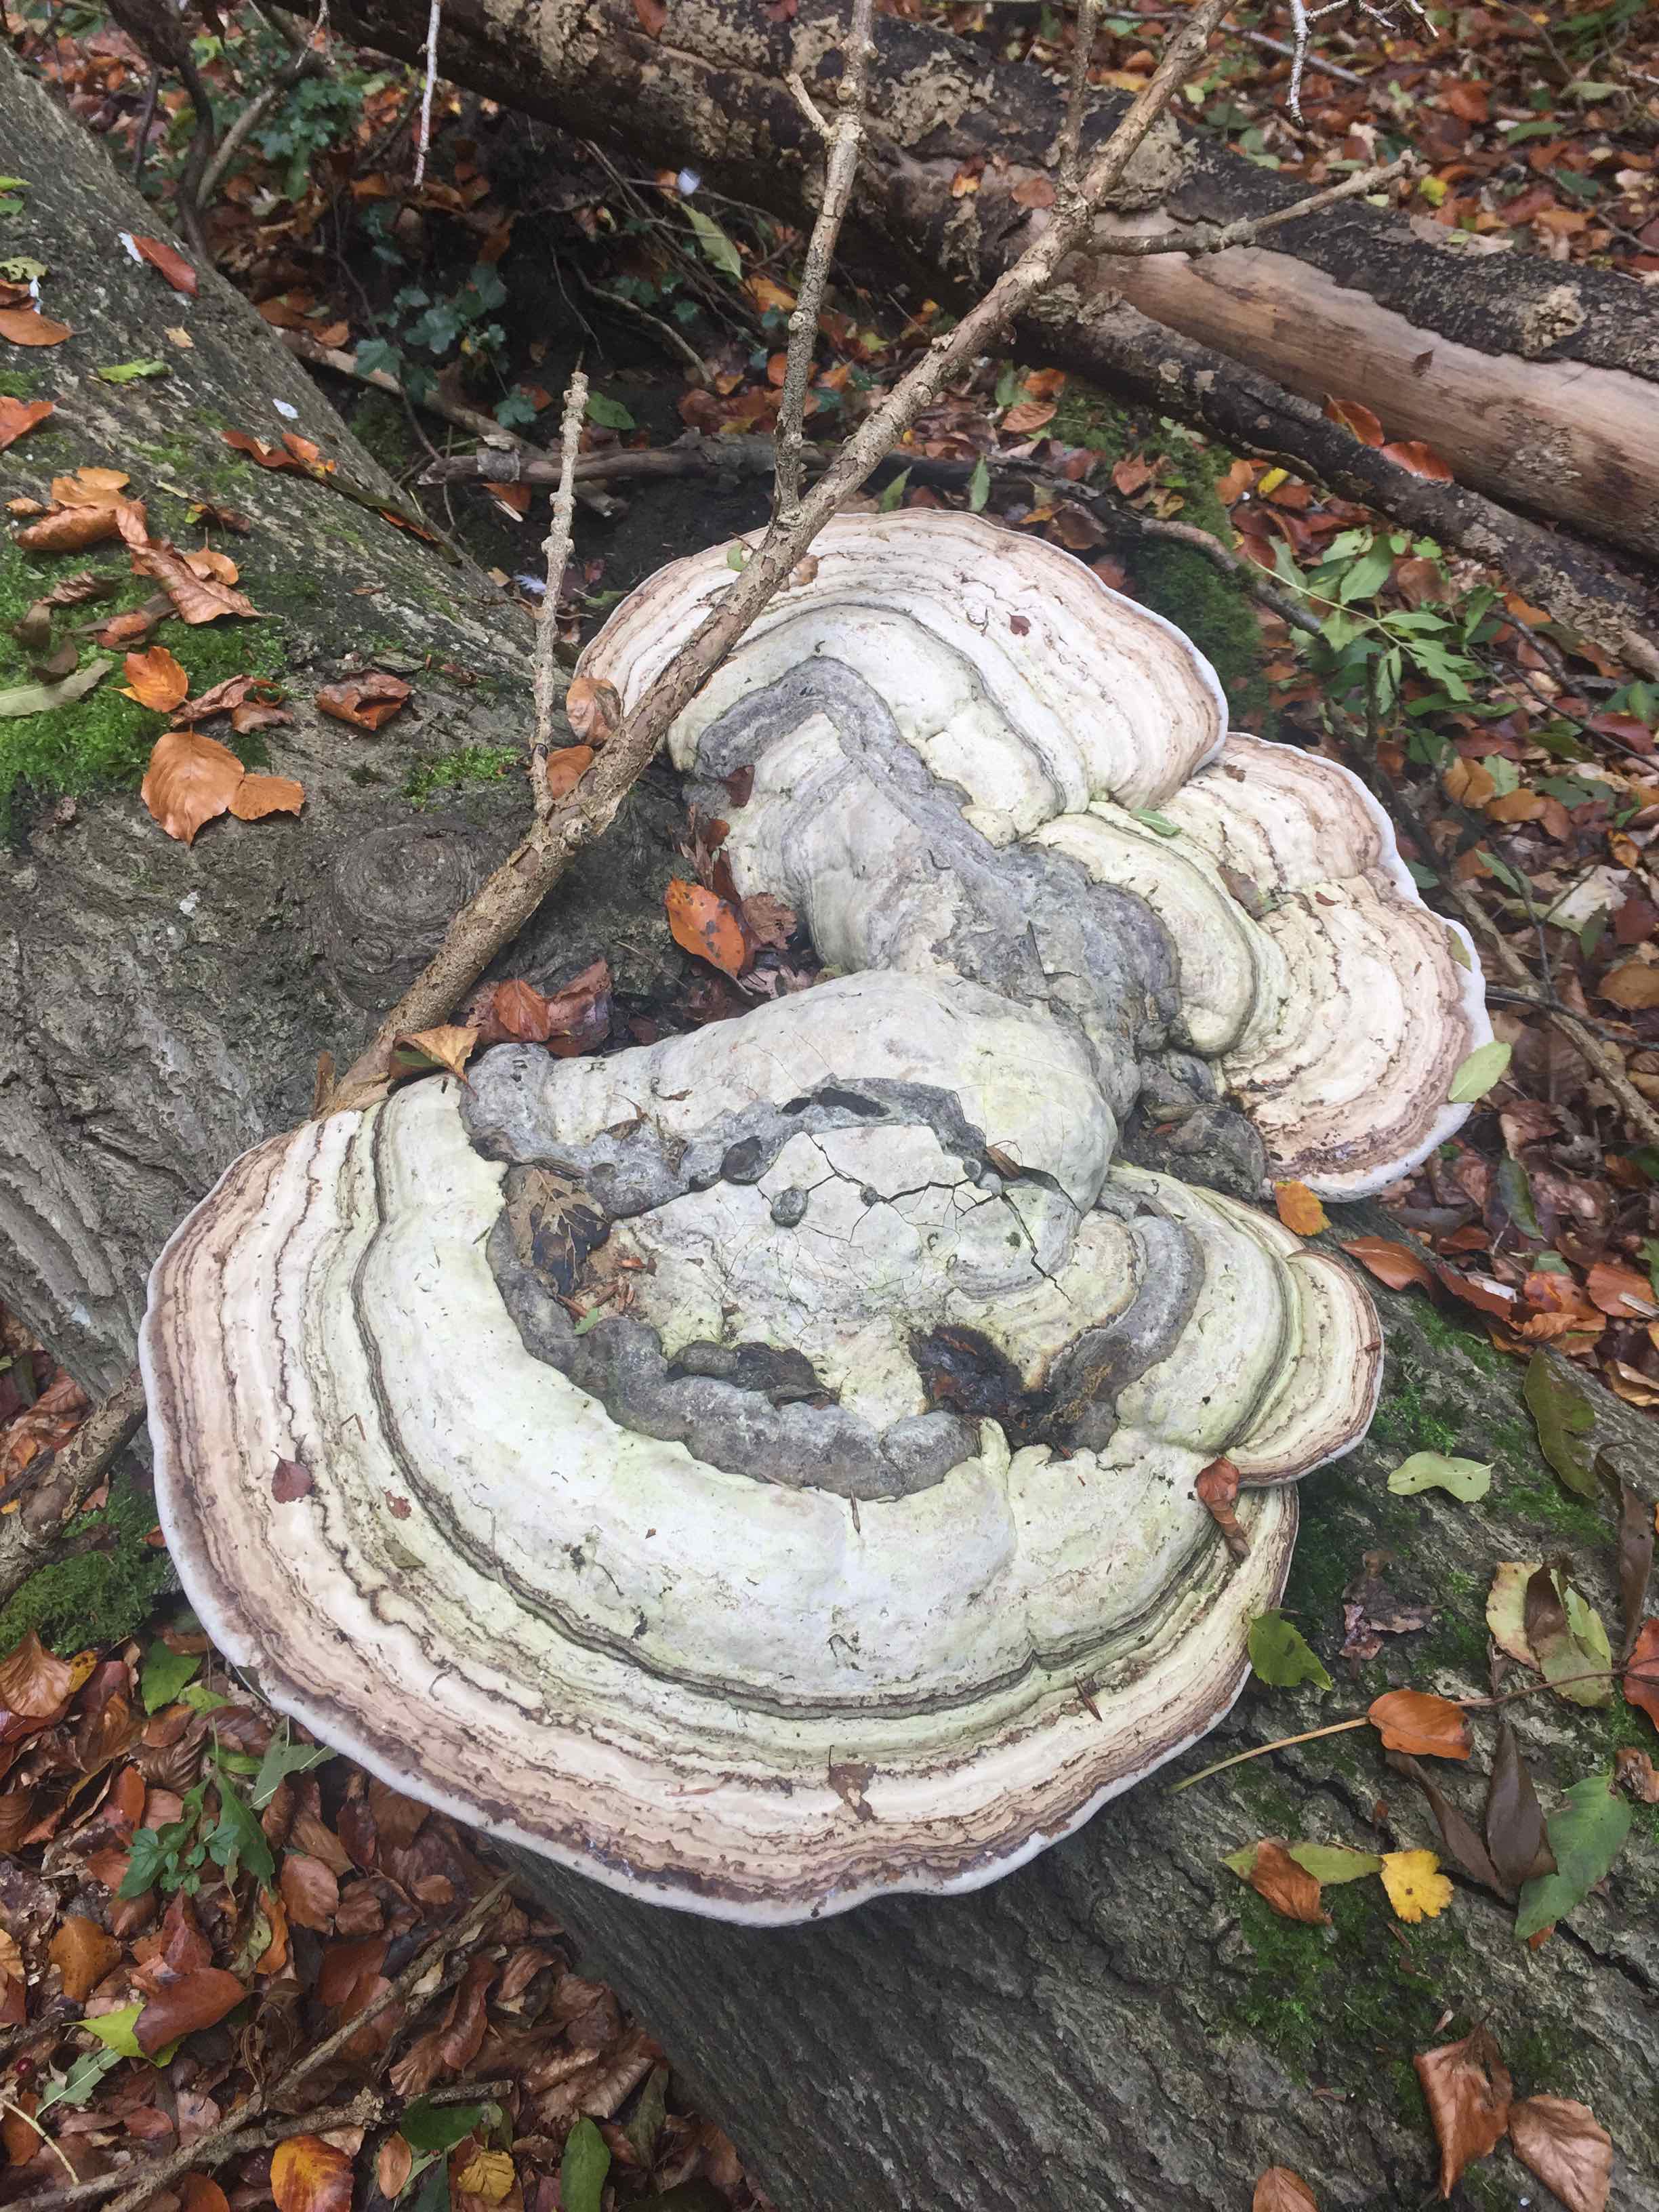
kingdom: Fungi
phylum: Basidiomycota
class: Agaricomycetes
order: Polyporales
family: Polyporaceae
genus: Fomes
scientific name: Fomes fomentarius
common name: tøndersvamp
